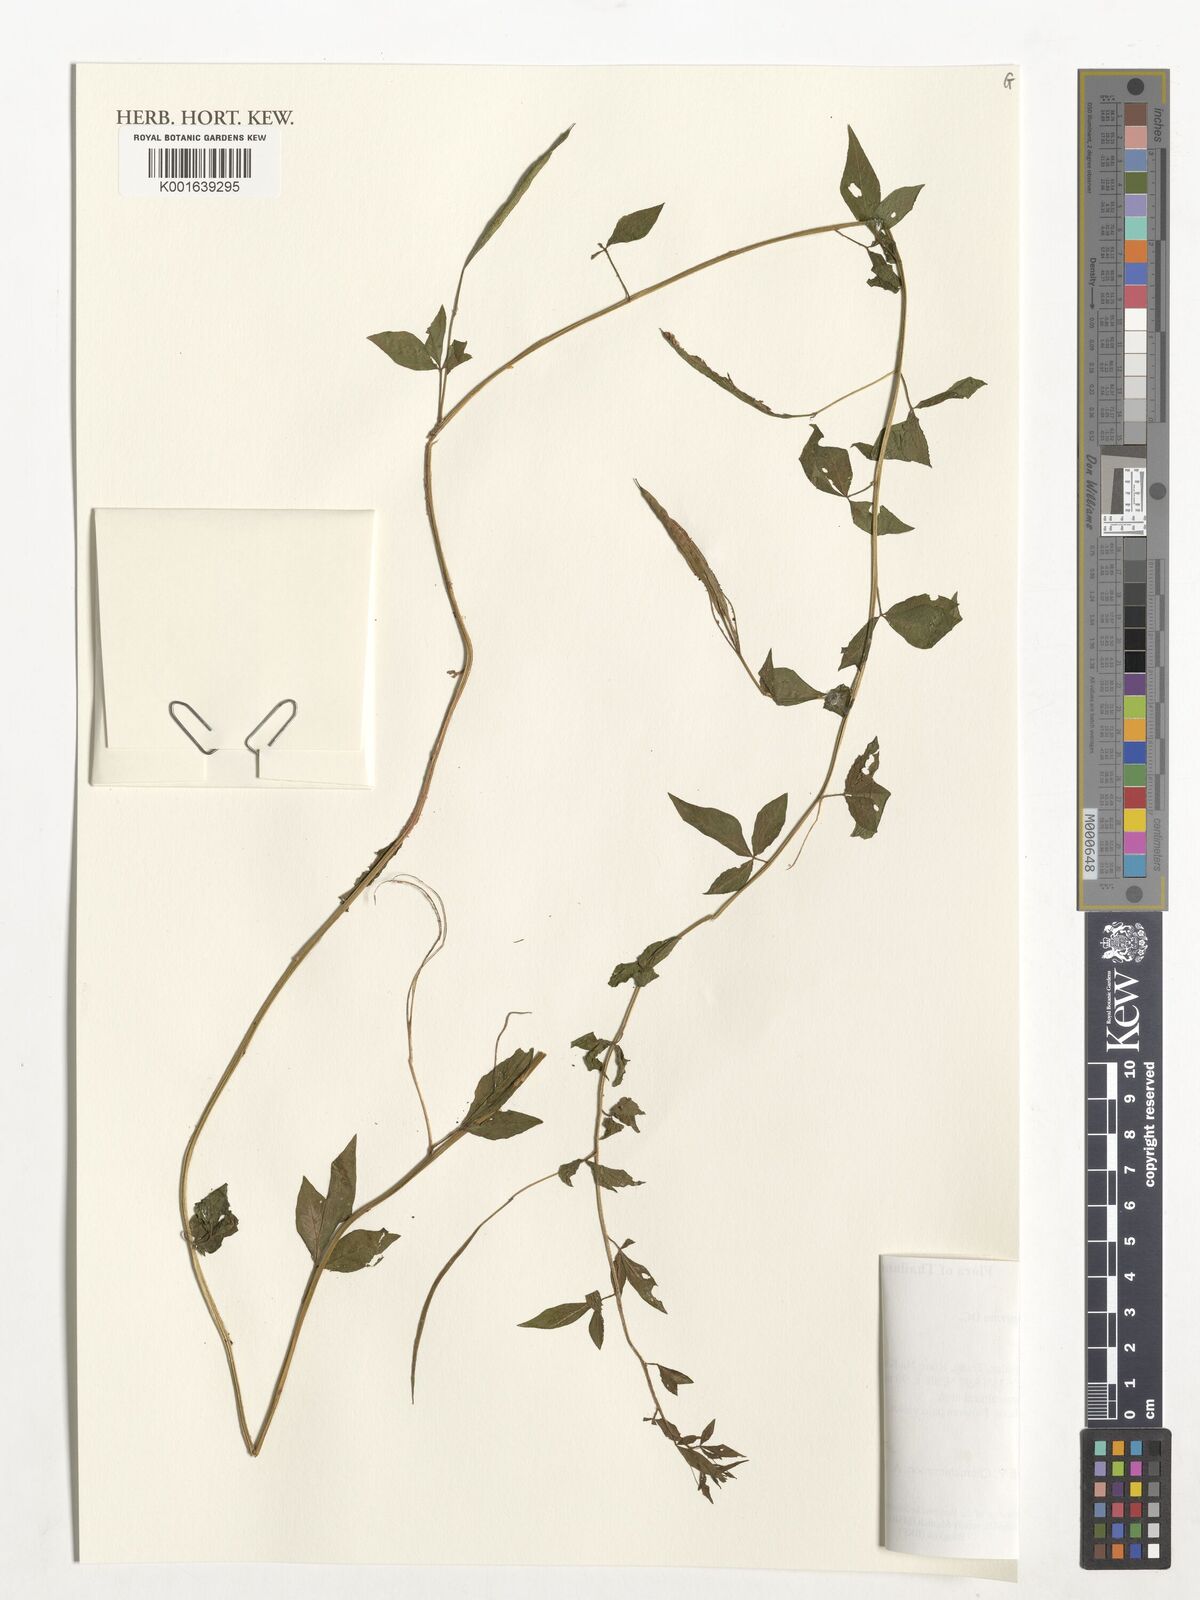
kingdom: Plantae
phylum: Tracheophyta
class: Magnoliopsida
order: Brassicales
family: Cleomaceae
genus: Sieruela
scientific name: Sieruela rutidosperma
